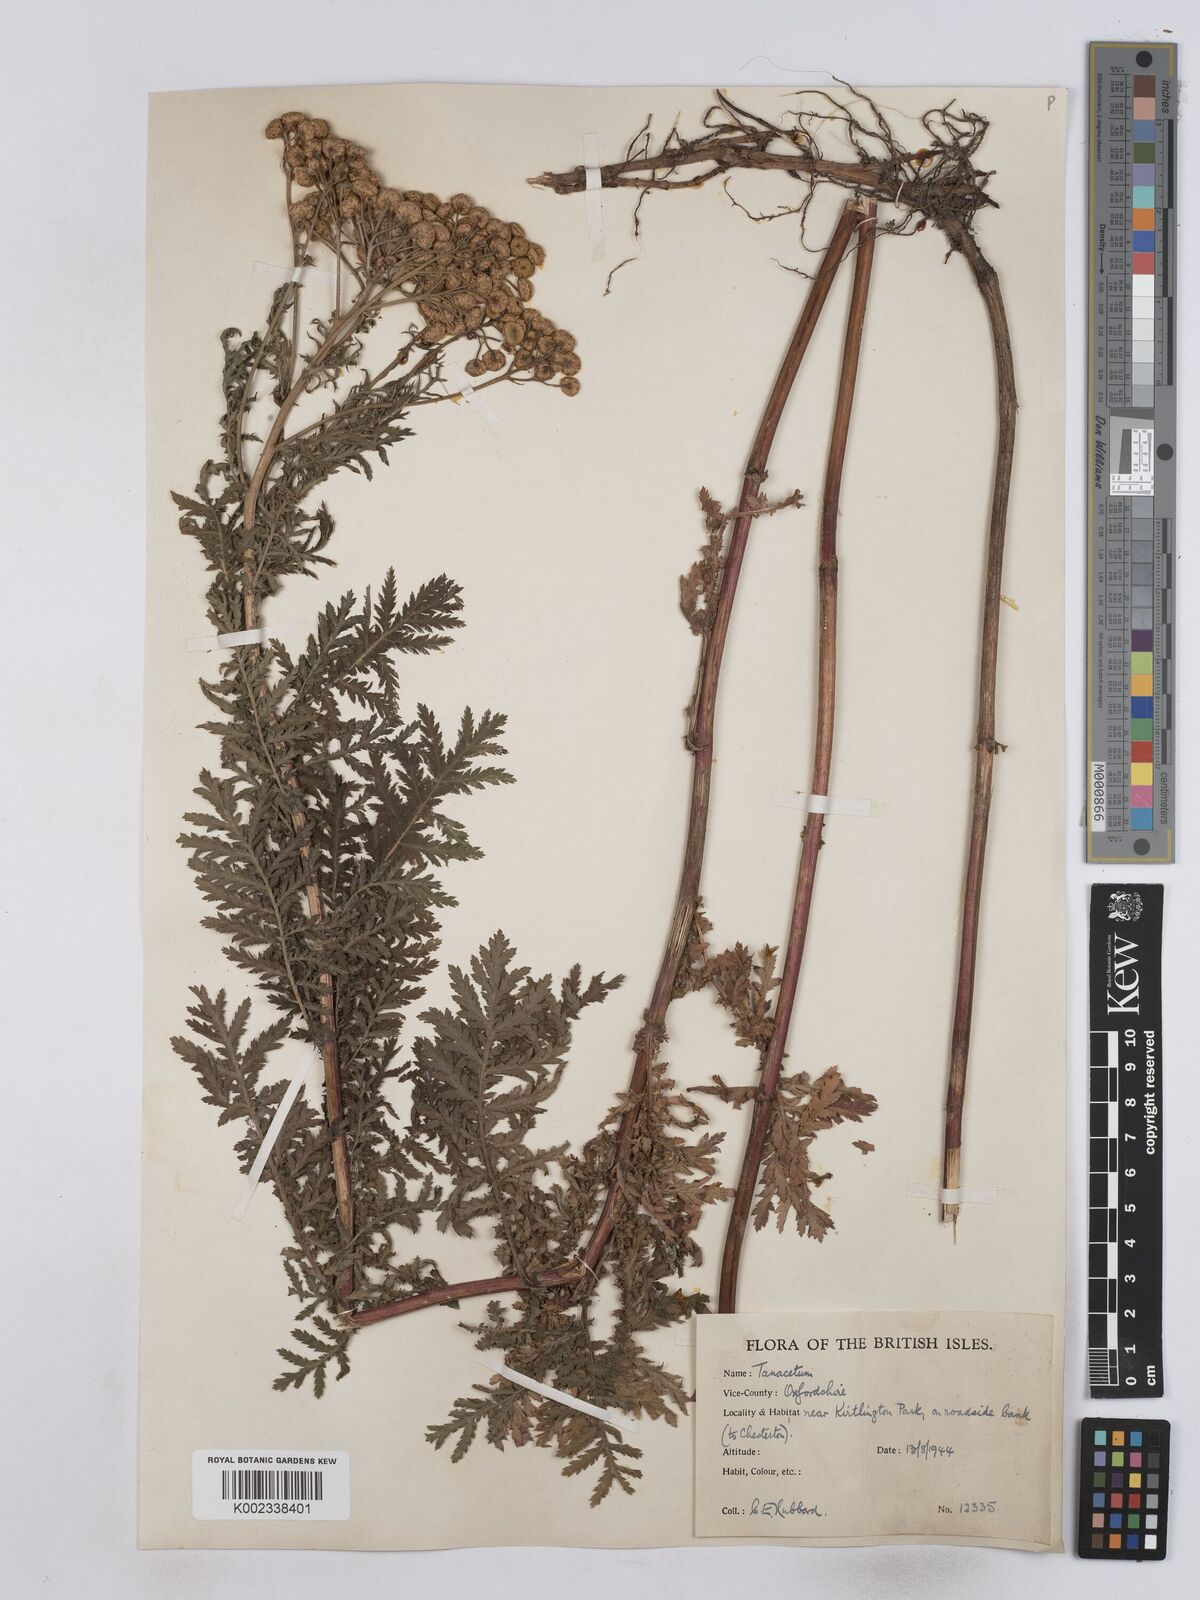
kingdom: Plantae
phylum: Tracheophyta
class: Magnoliopsida
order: Asterales
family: Asteraceae
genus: Tanacetum
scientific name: Tanacetum vulgare
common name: Common tansy
